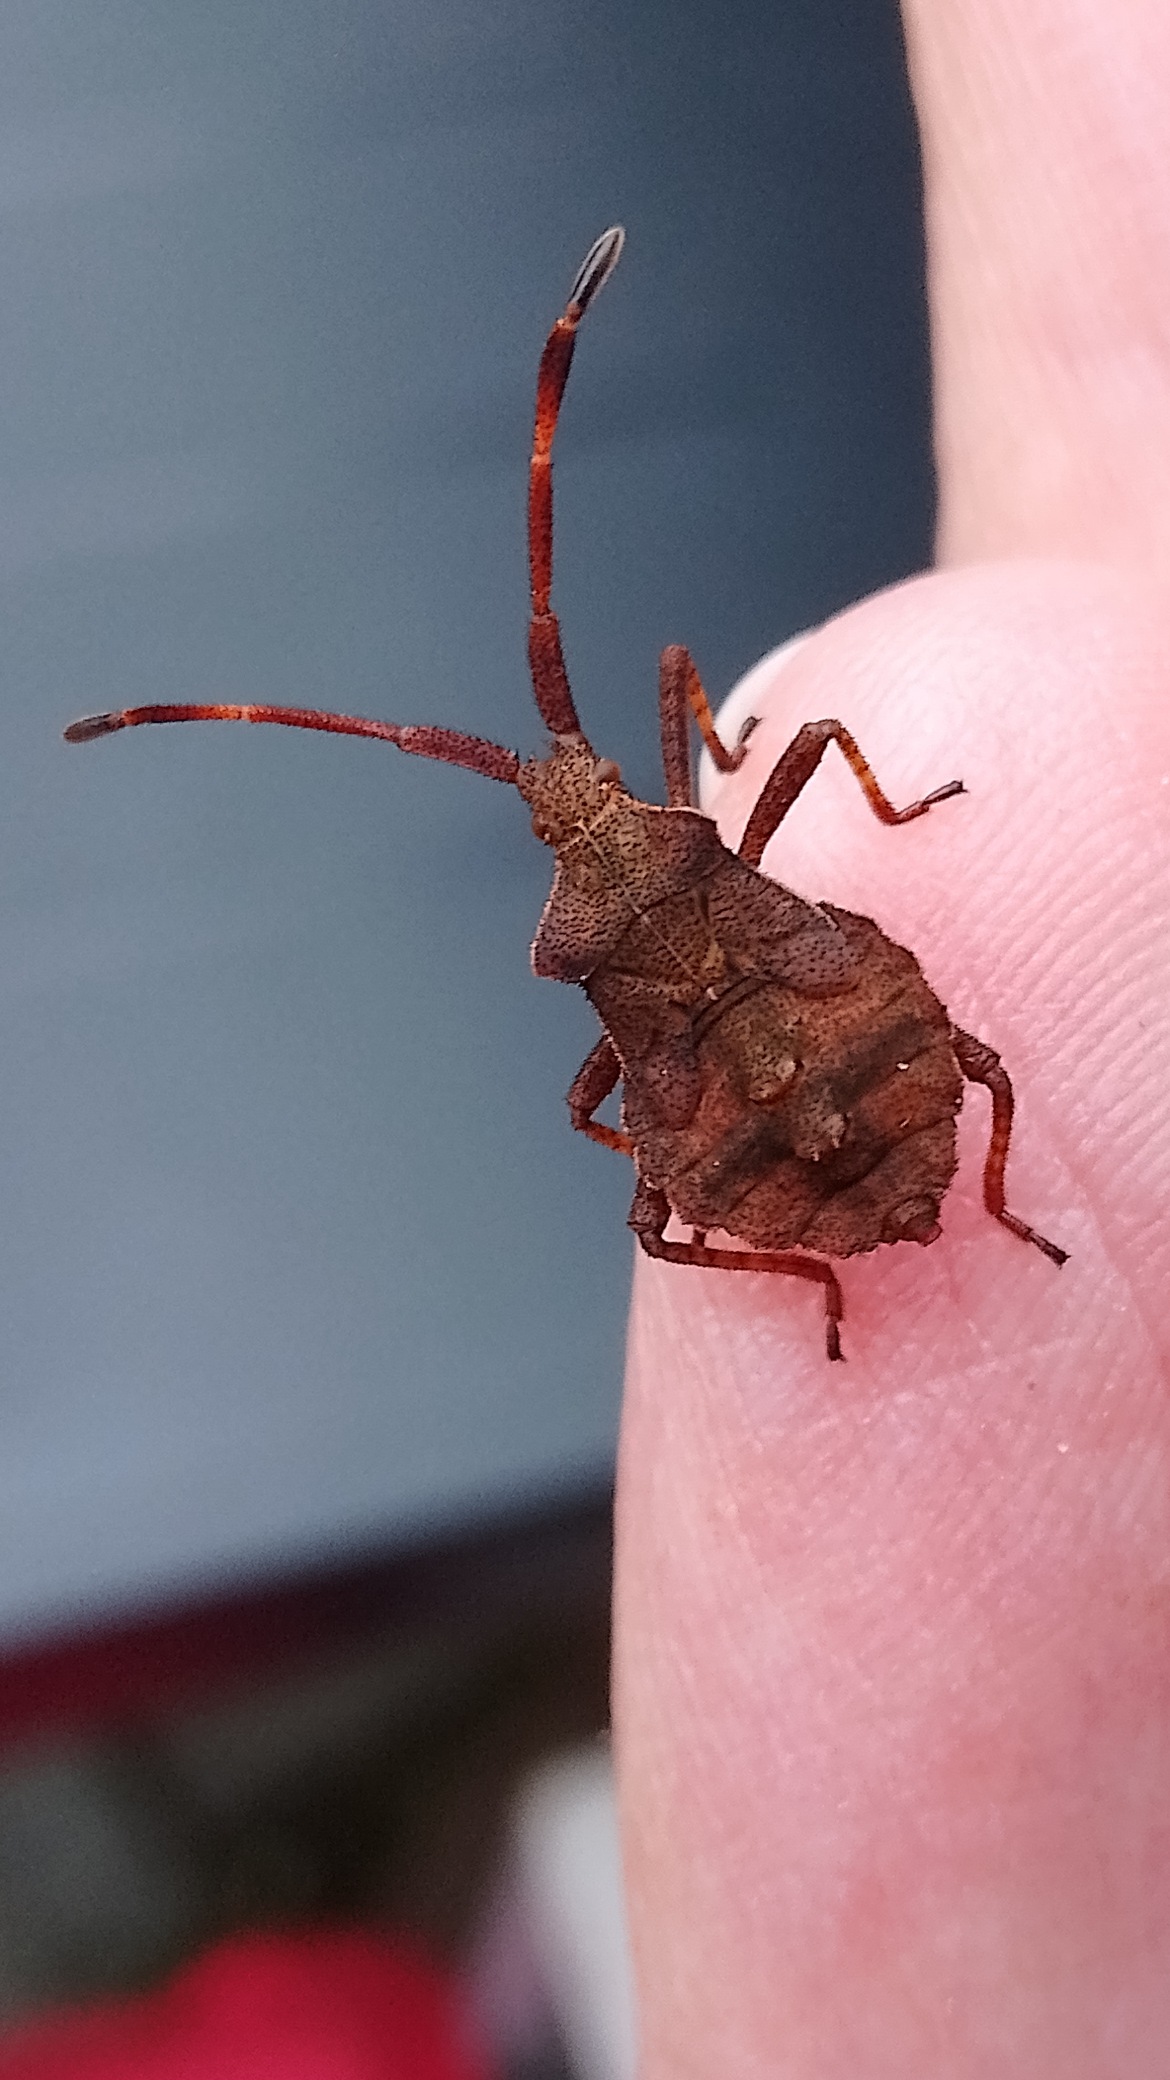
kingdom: Animalia
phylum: Arthropoda
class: Insecta
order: Hemiptera
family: Coreidae
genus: Coreus
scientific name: Coreus marginatus
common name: Skræppetæge
